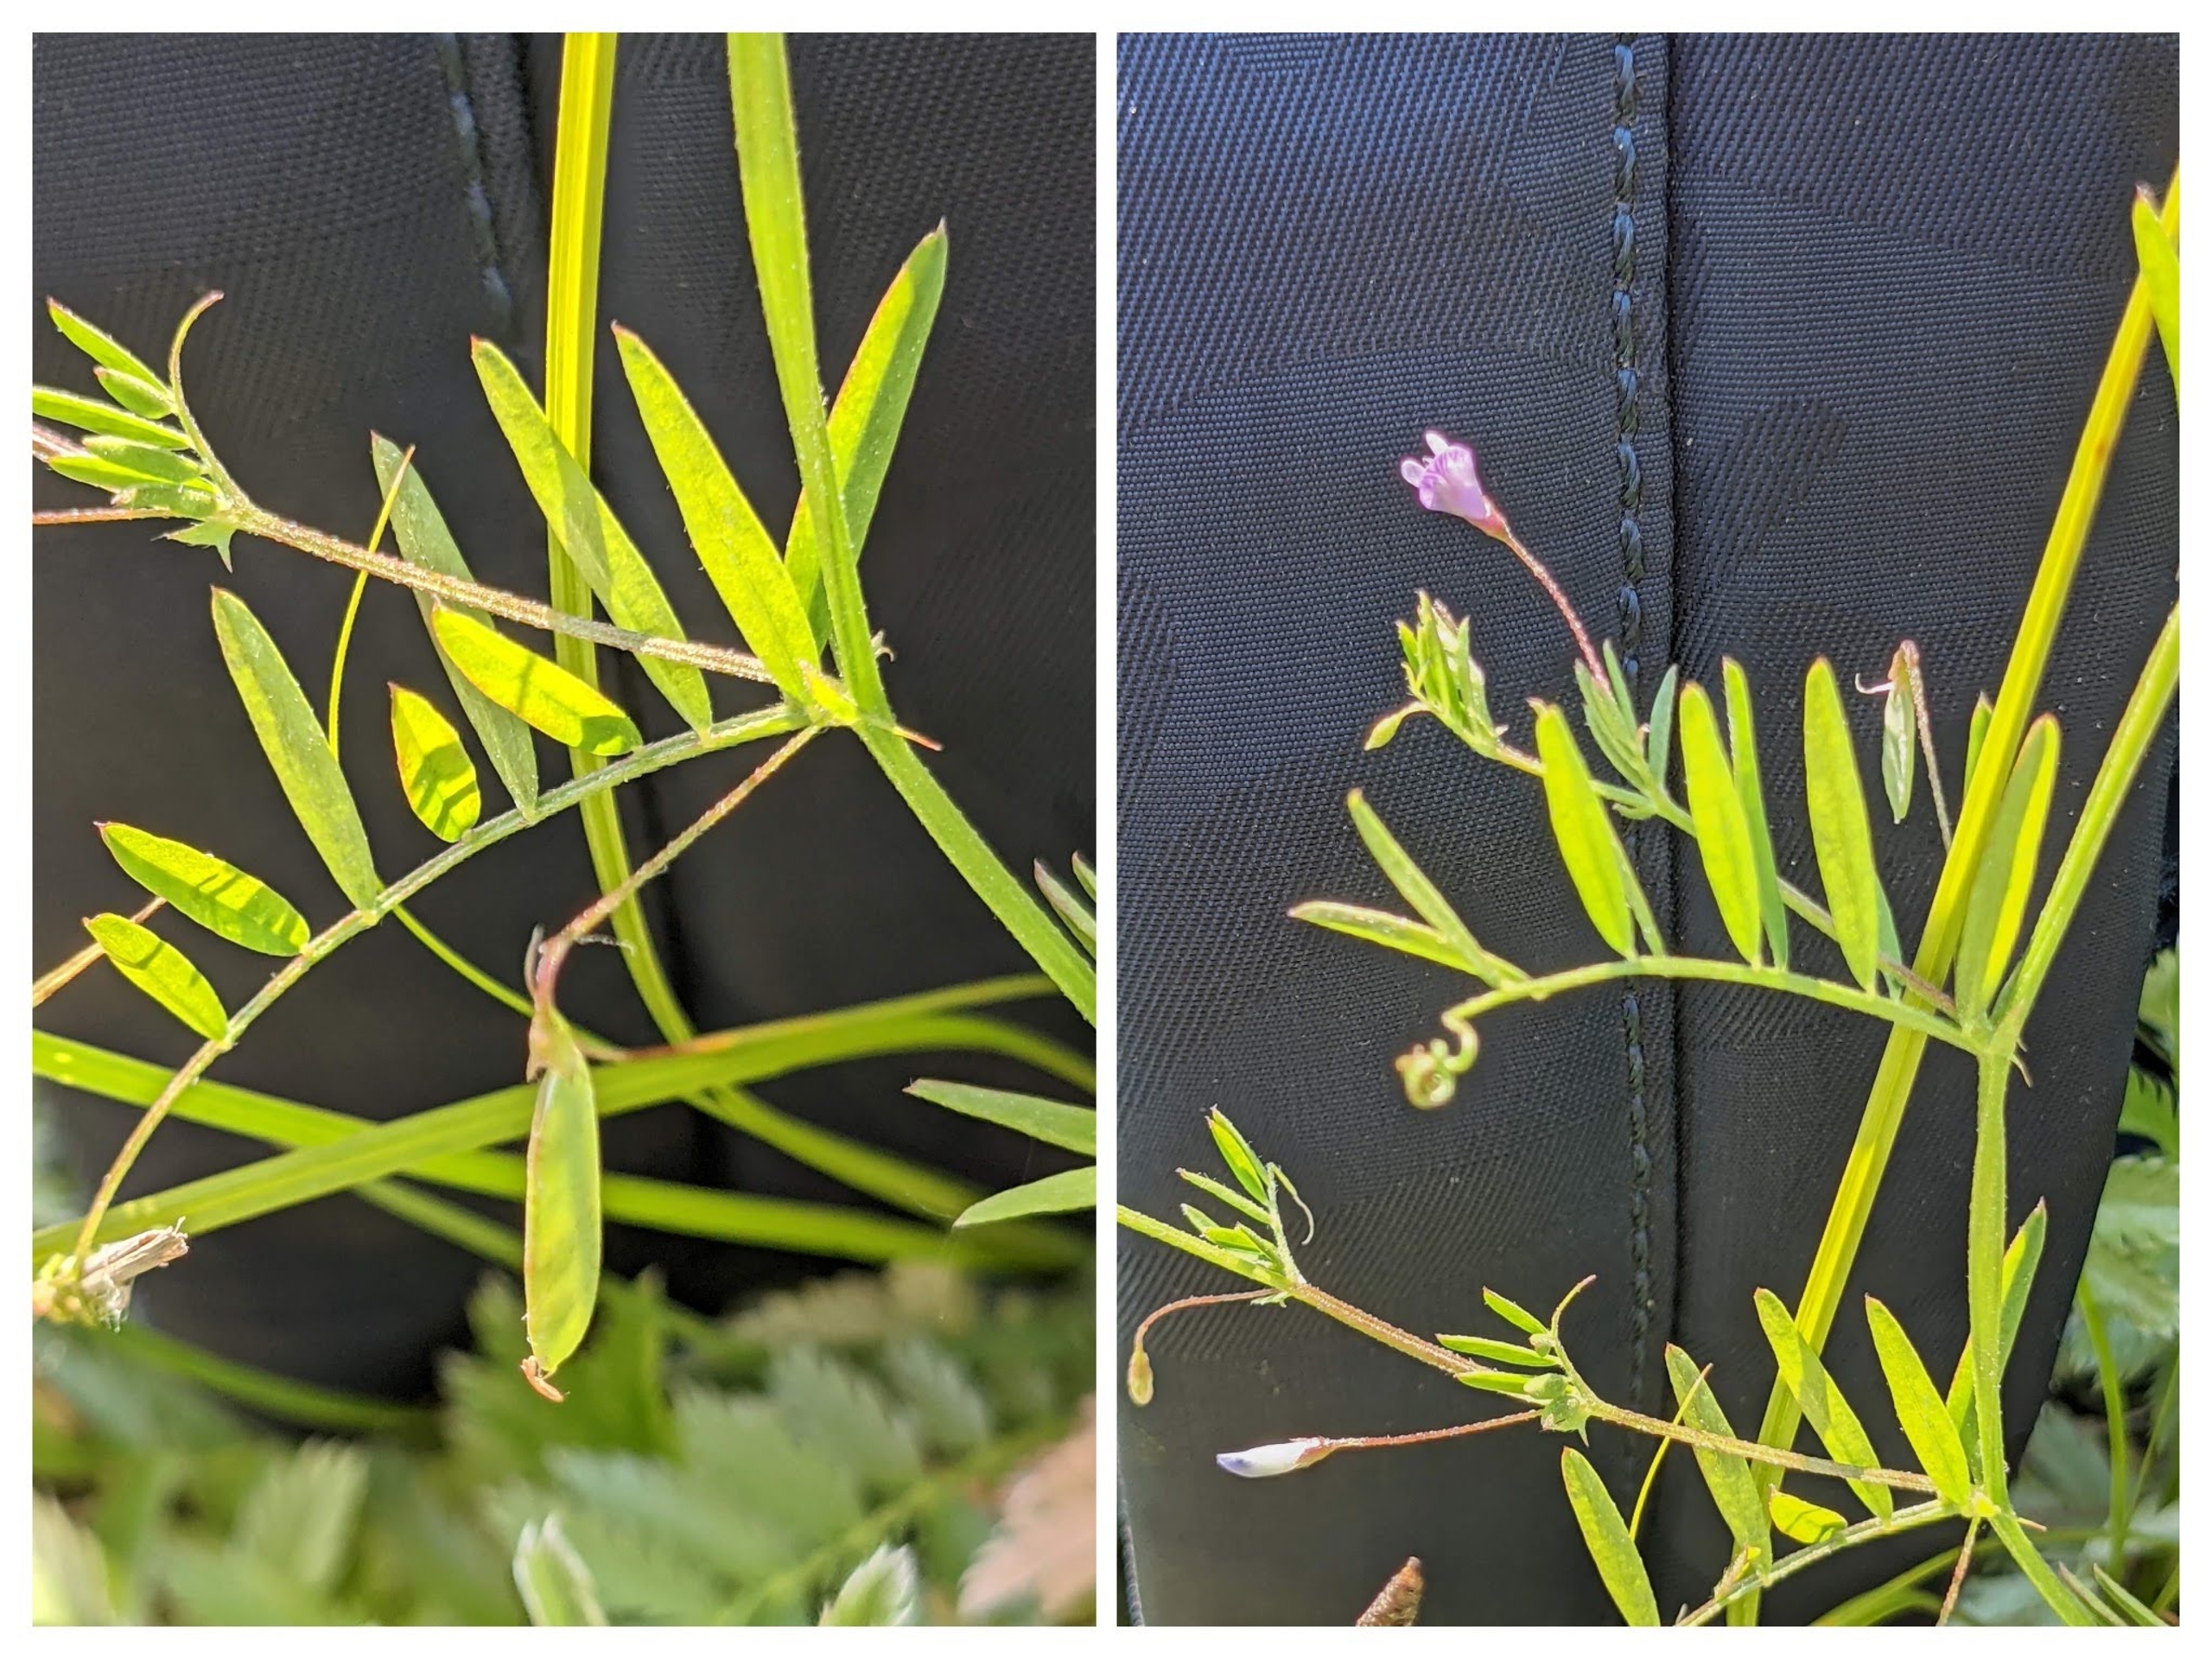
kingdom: Plantae
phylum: Tracheophyta
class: Magnoliopsida
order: Fabales
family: Fabaceae
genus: Vicia
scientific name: Vicia tetrasperma
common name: Tadder-vikke
